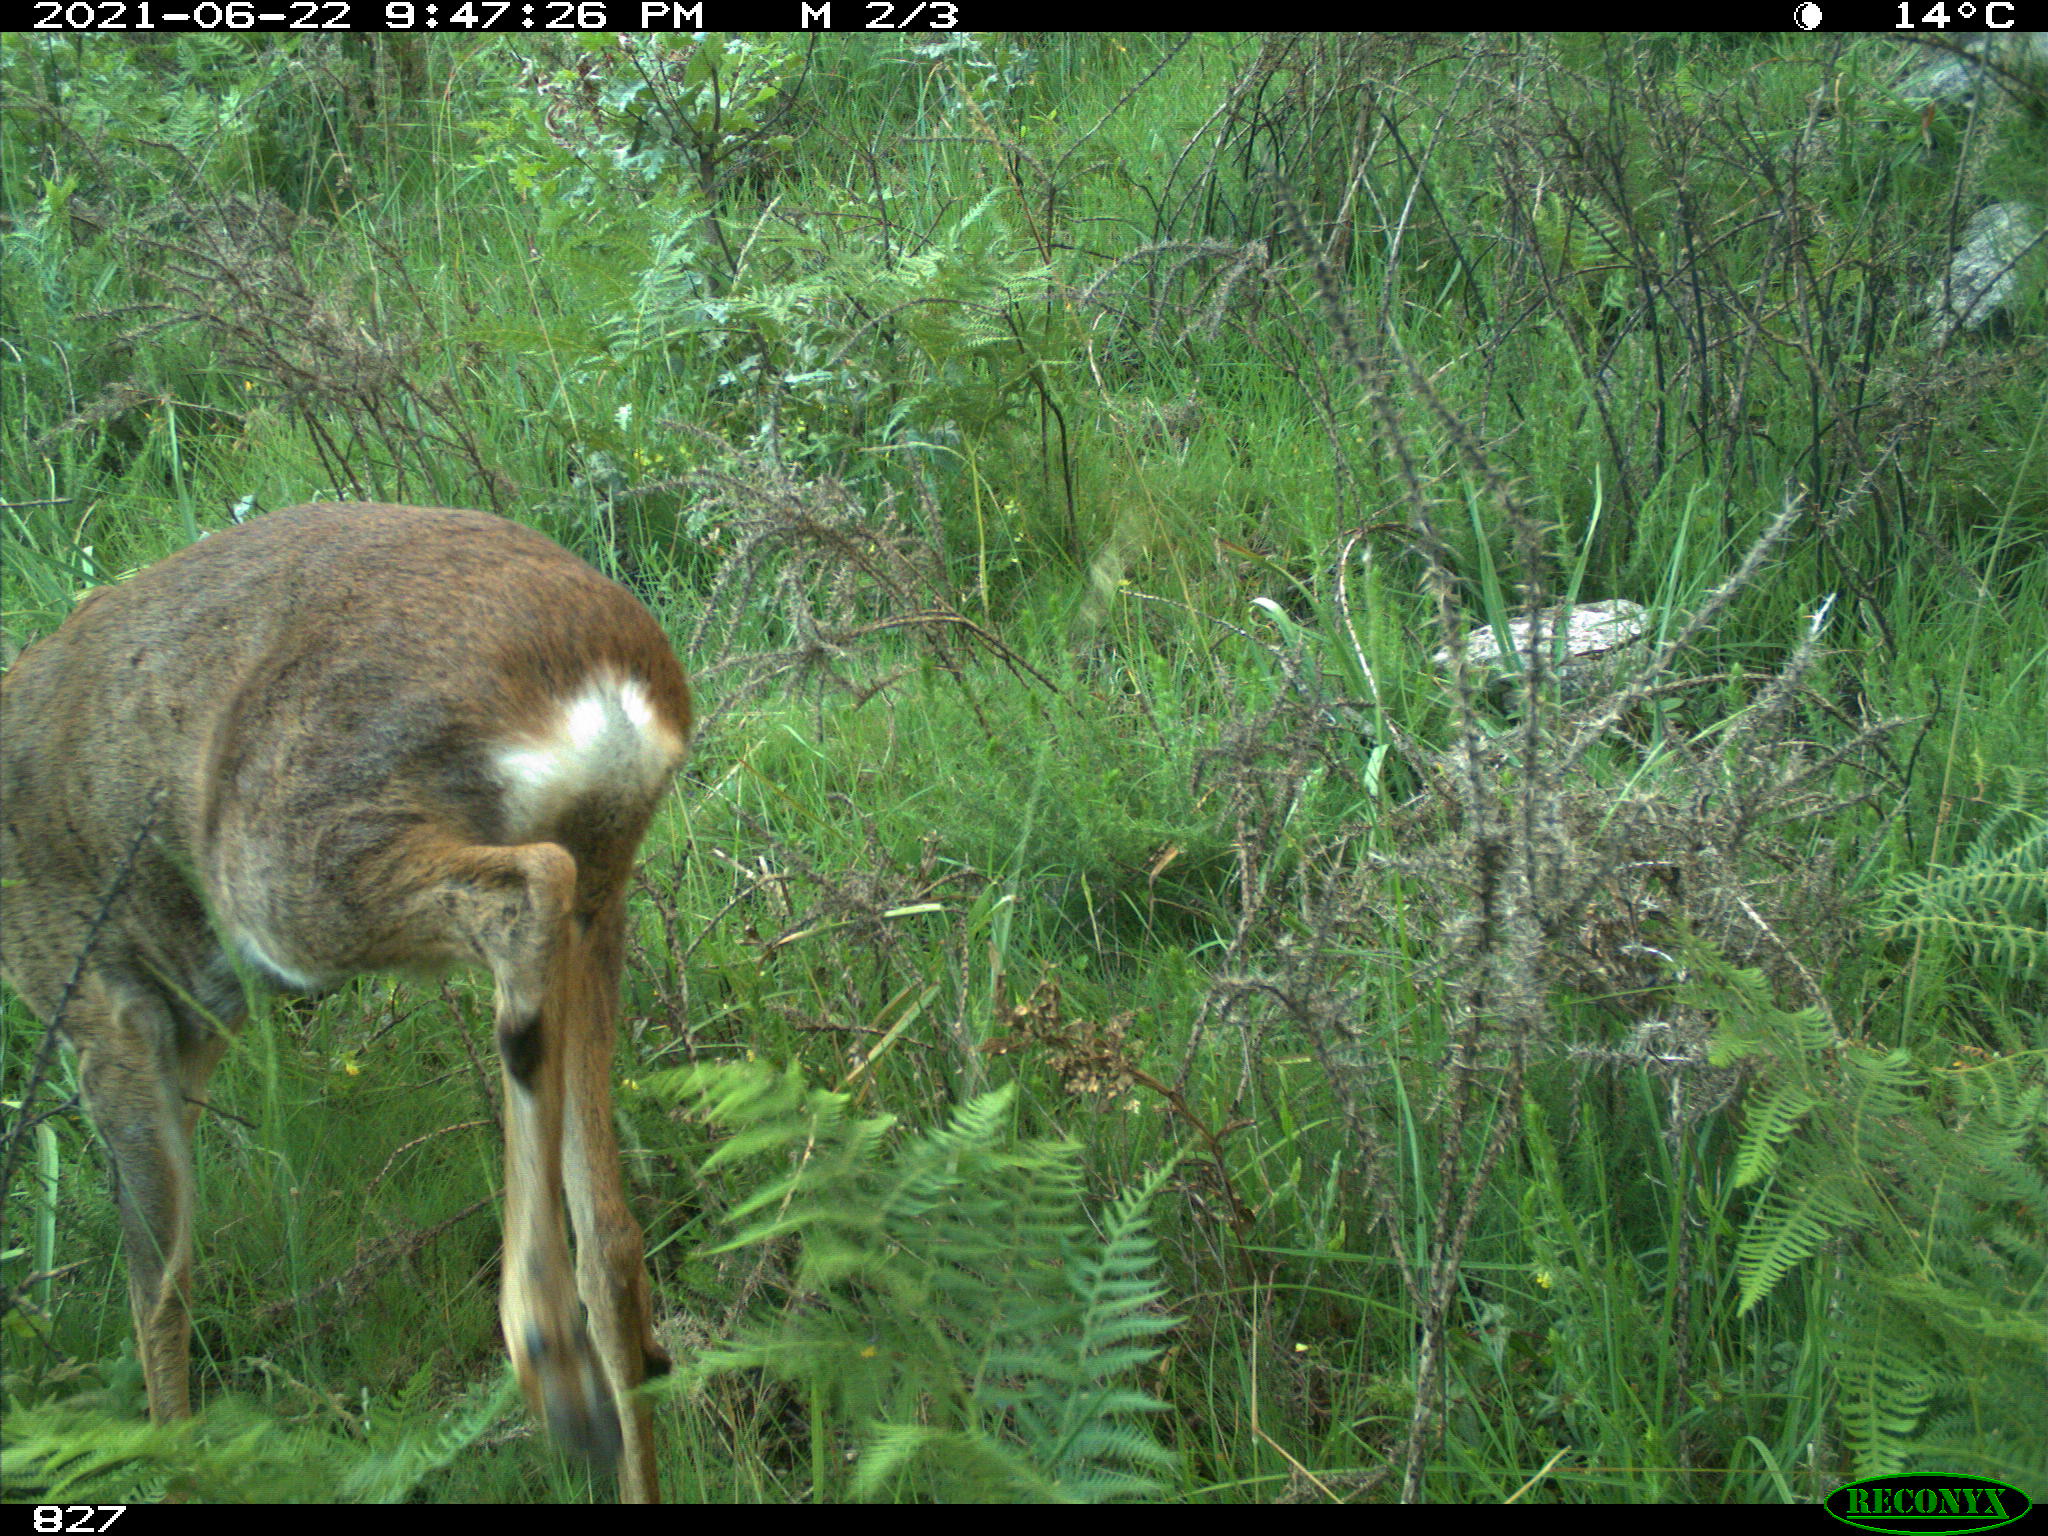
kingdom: Animalia
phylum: Chordata
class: Mammalia
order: Artiodactyla
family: Cervidae
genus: Capreolus
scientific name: Capreolus capreolus
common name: Western roe deer
